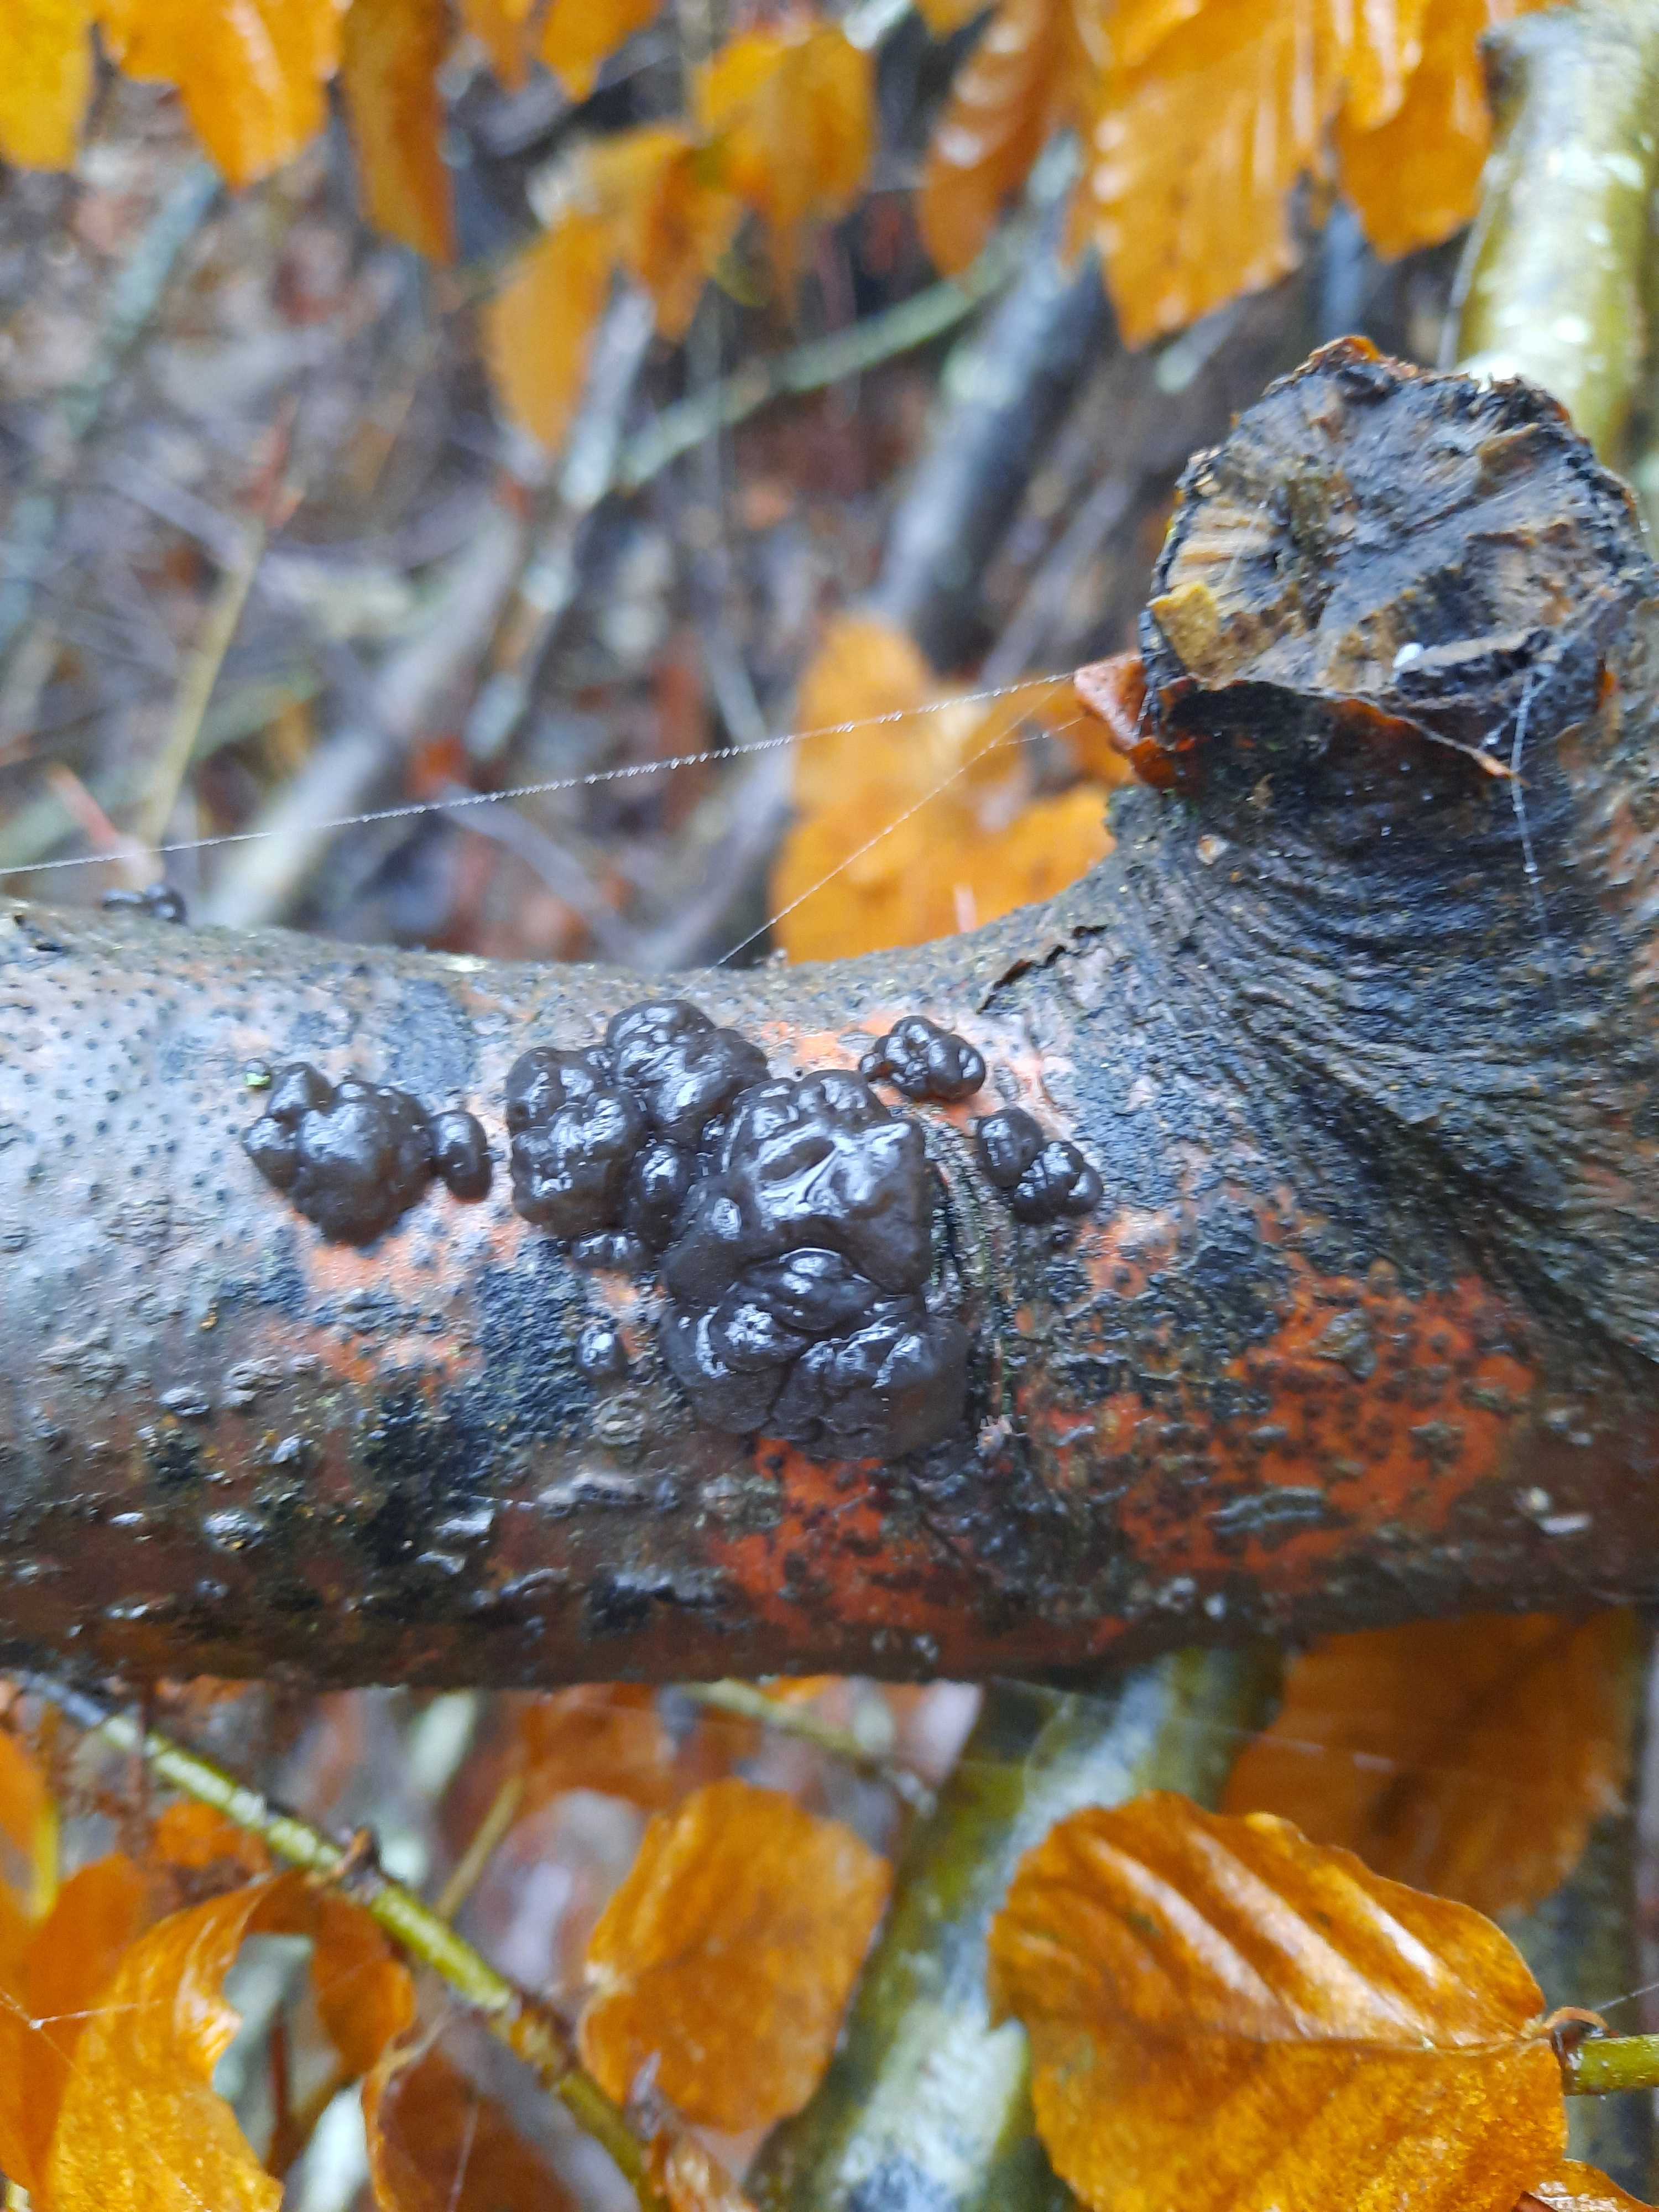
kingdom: Fungi
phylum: Basidiomycota
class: Agaricomycetes
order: Auriculariales
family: Auriculariaceae
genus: Exidia
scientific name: Exidia nigricans
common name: almindelig bævretop
